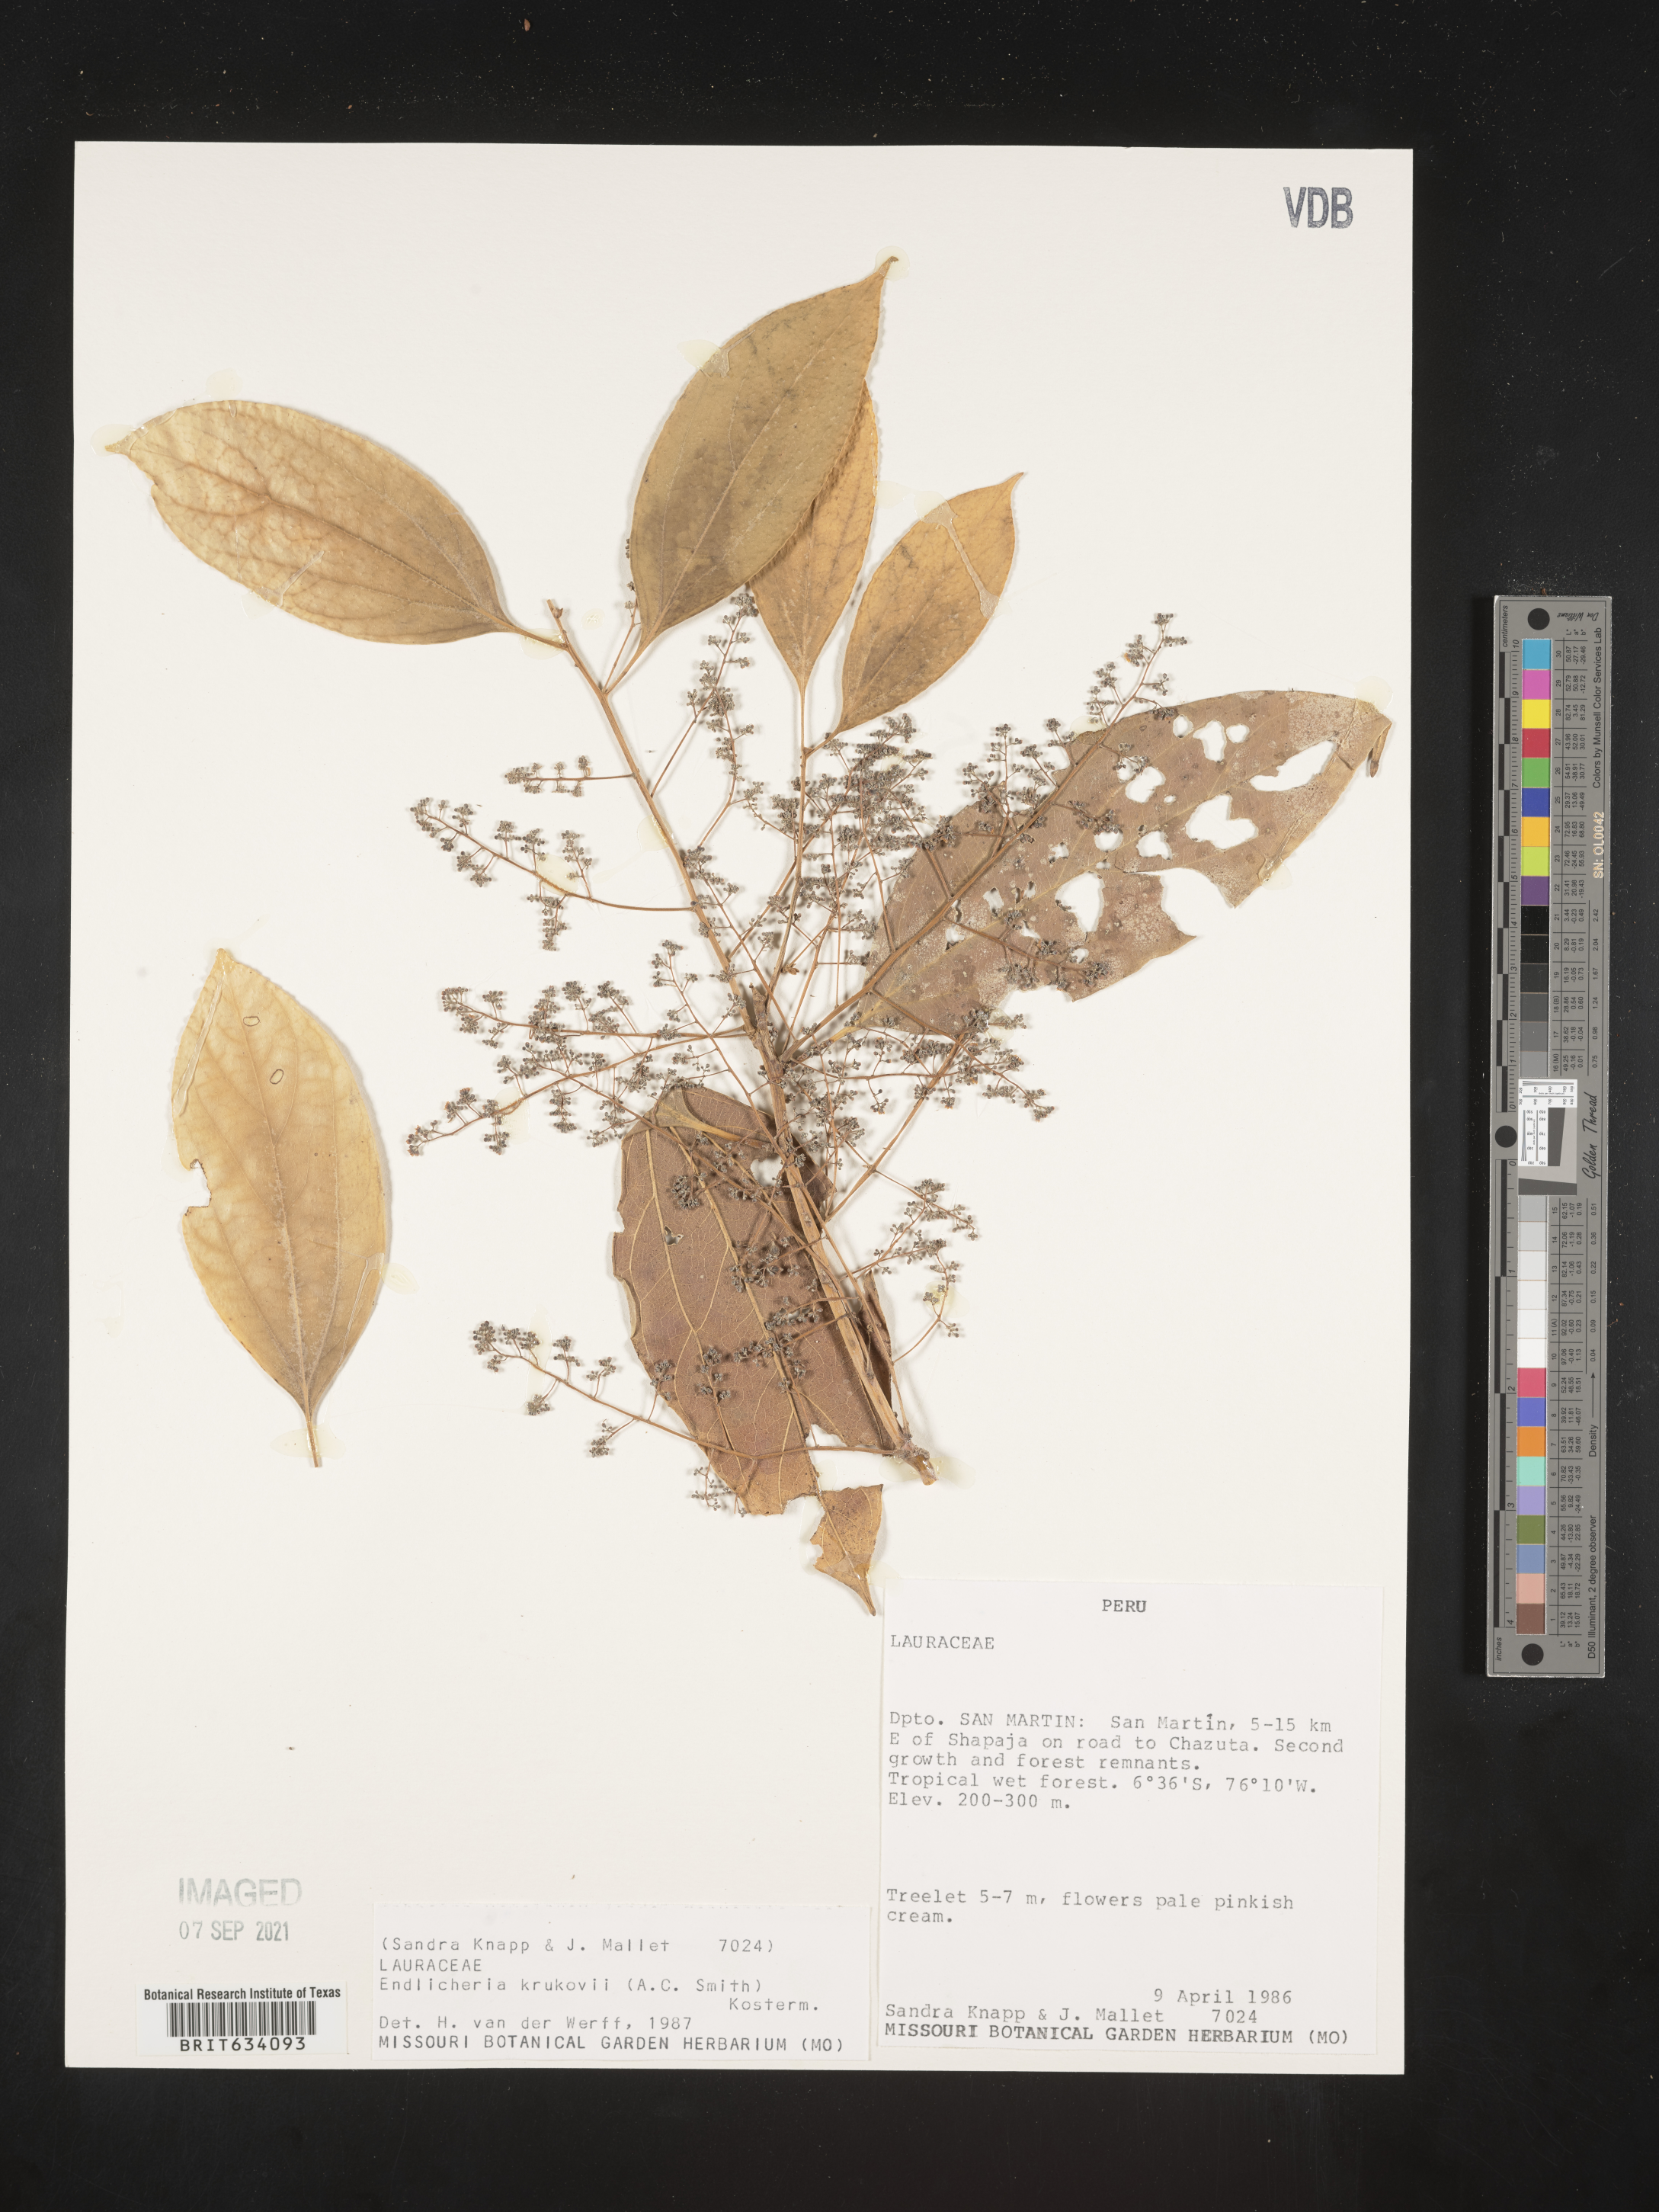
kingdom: Plantae
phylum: Tracheophyta
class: Magnoliopsida
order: Laurales
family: Lauraceae
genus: Endlicheria
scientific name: Endlicheria
